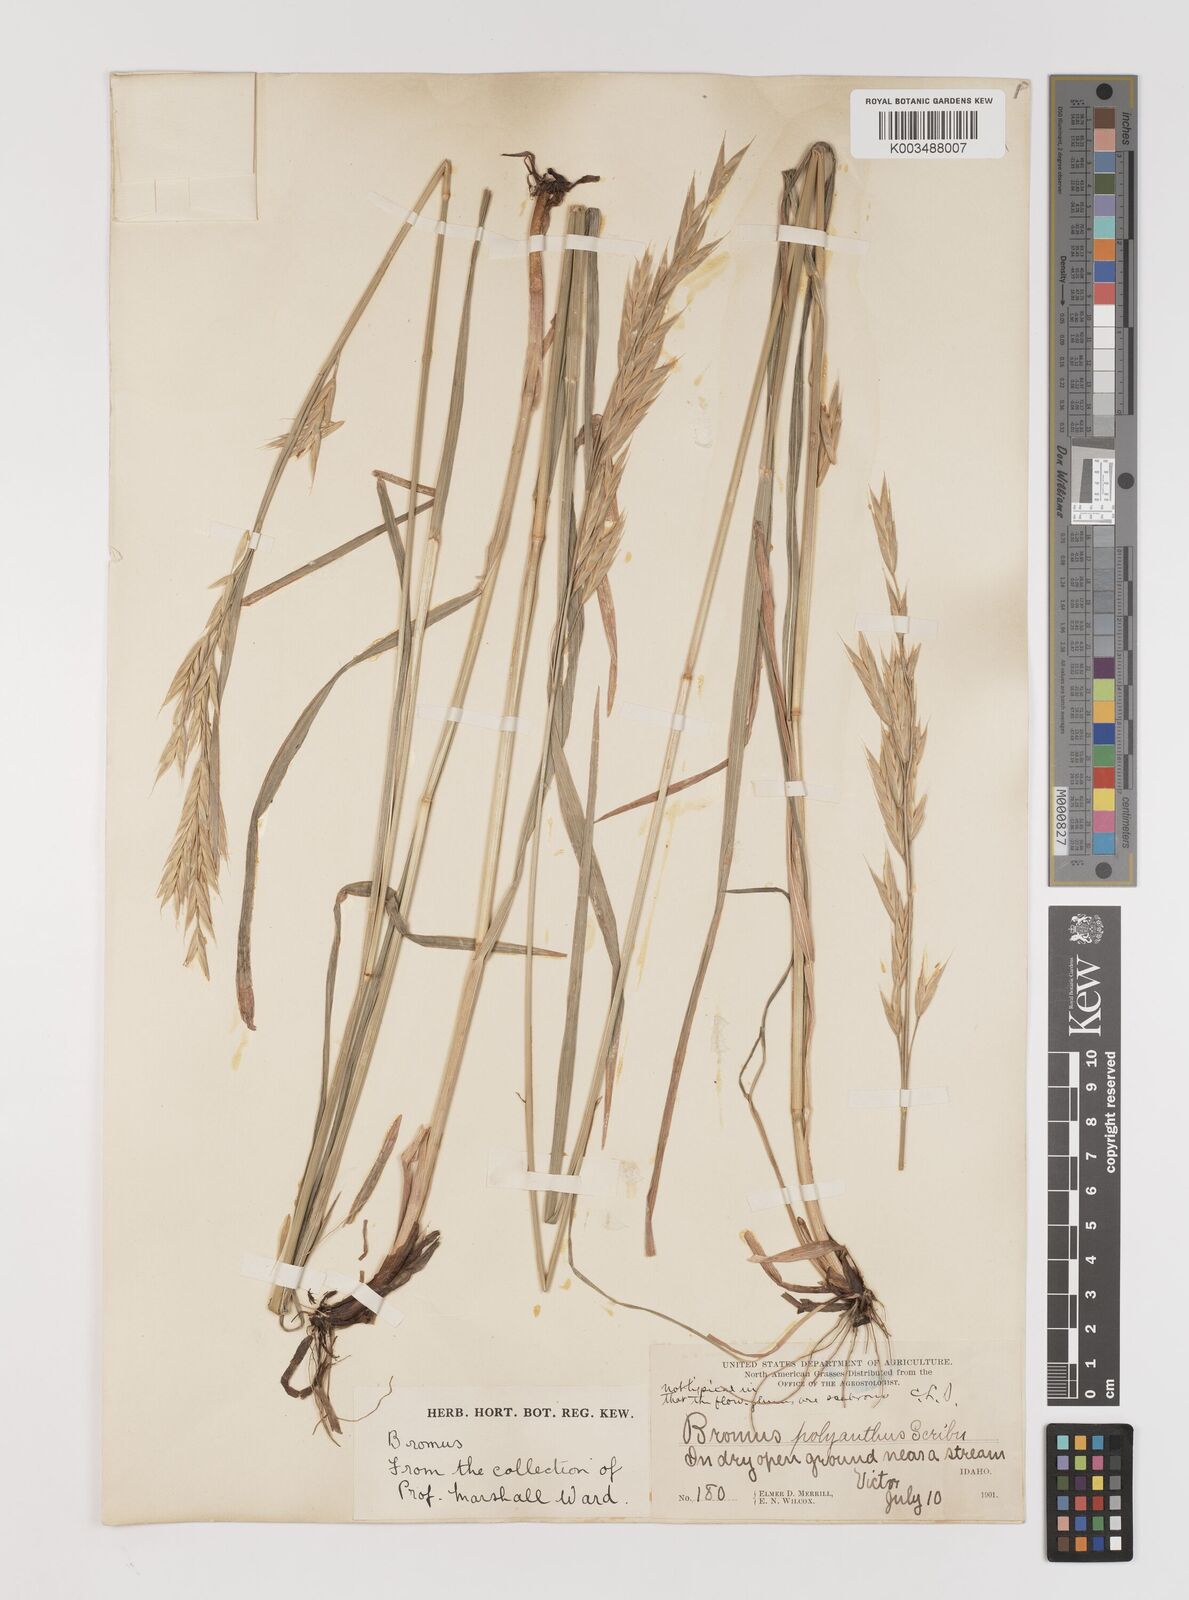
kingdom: Plantae
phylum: Tracheophyta
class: Liliopsida
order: Poales
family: Poaceae
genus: Bromus
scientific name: Bromus polyanthus
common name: Great basin brome
